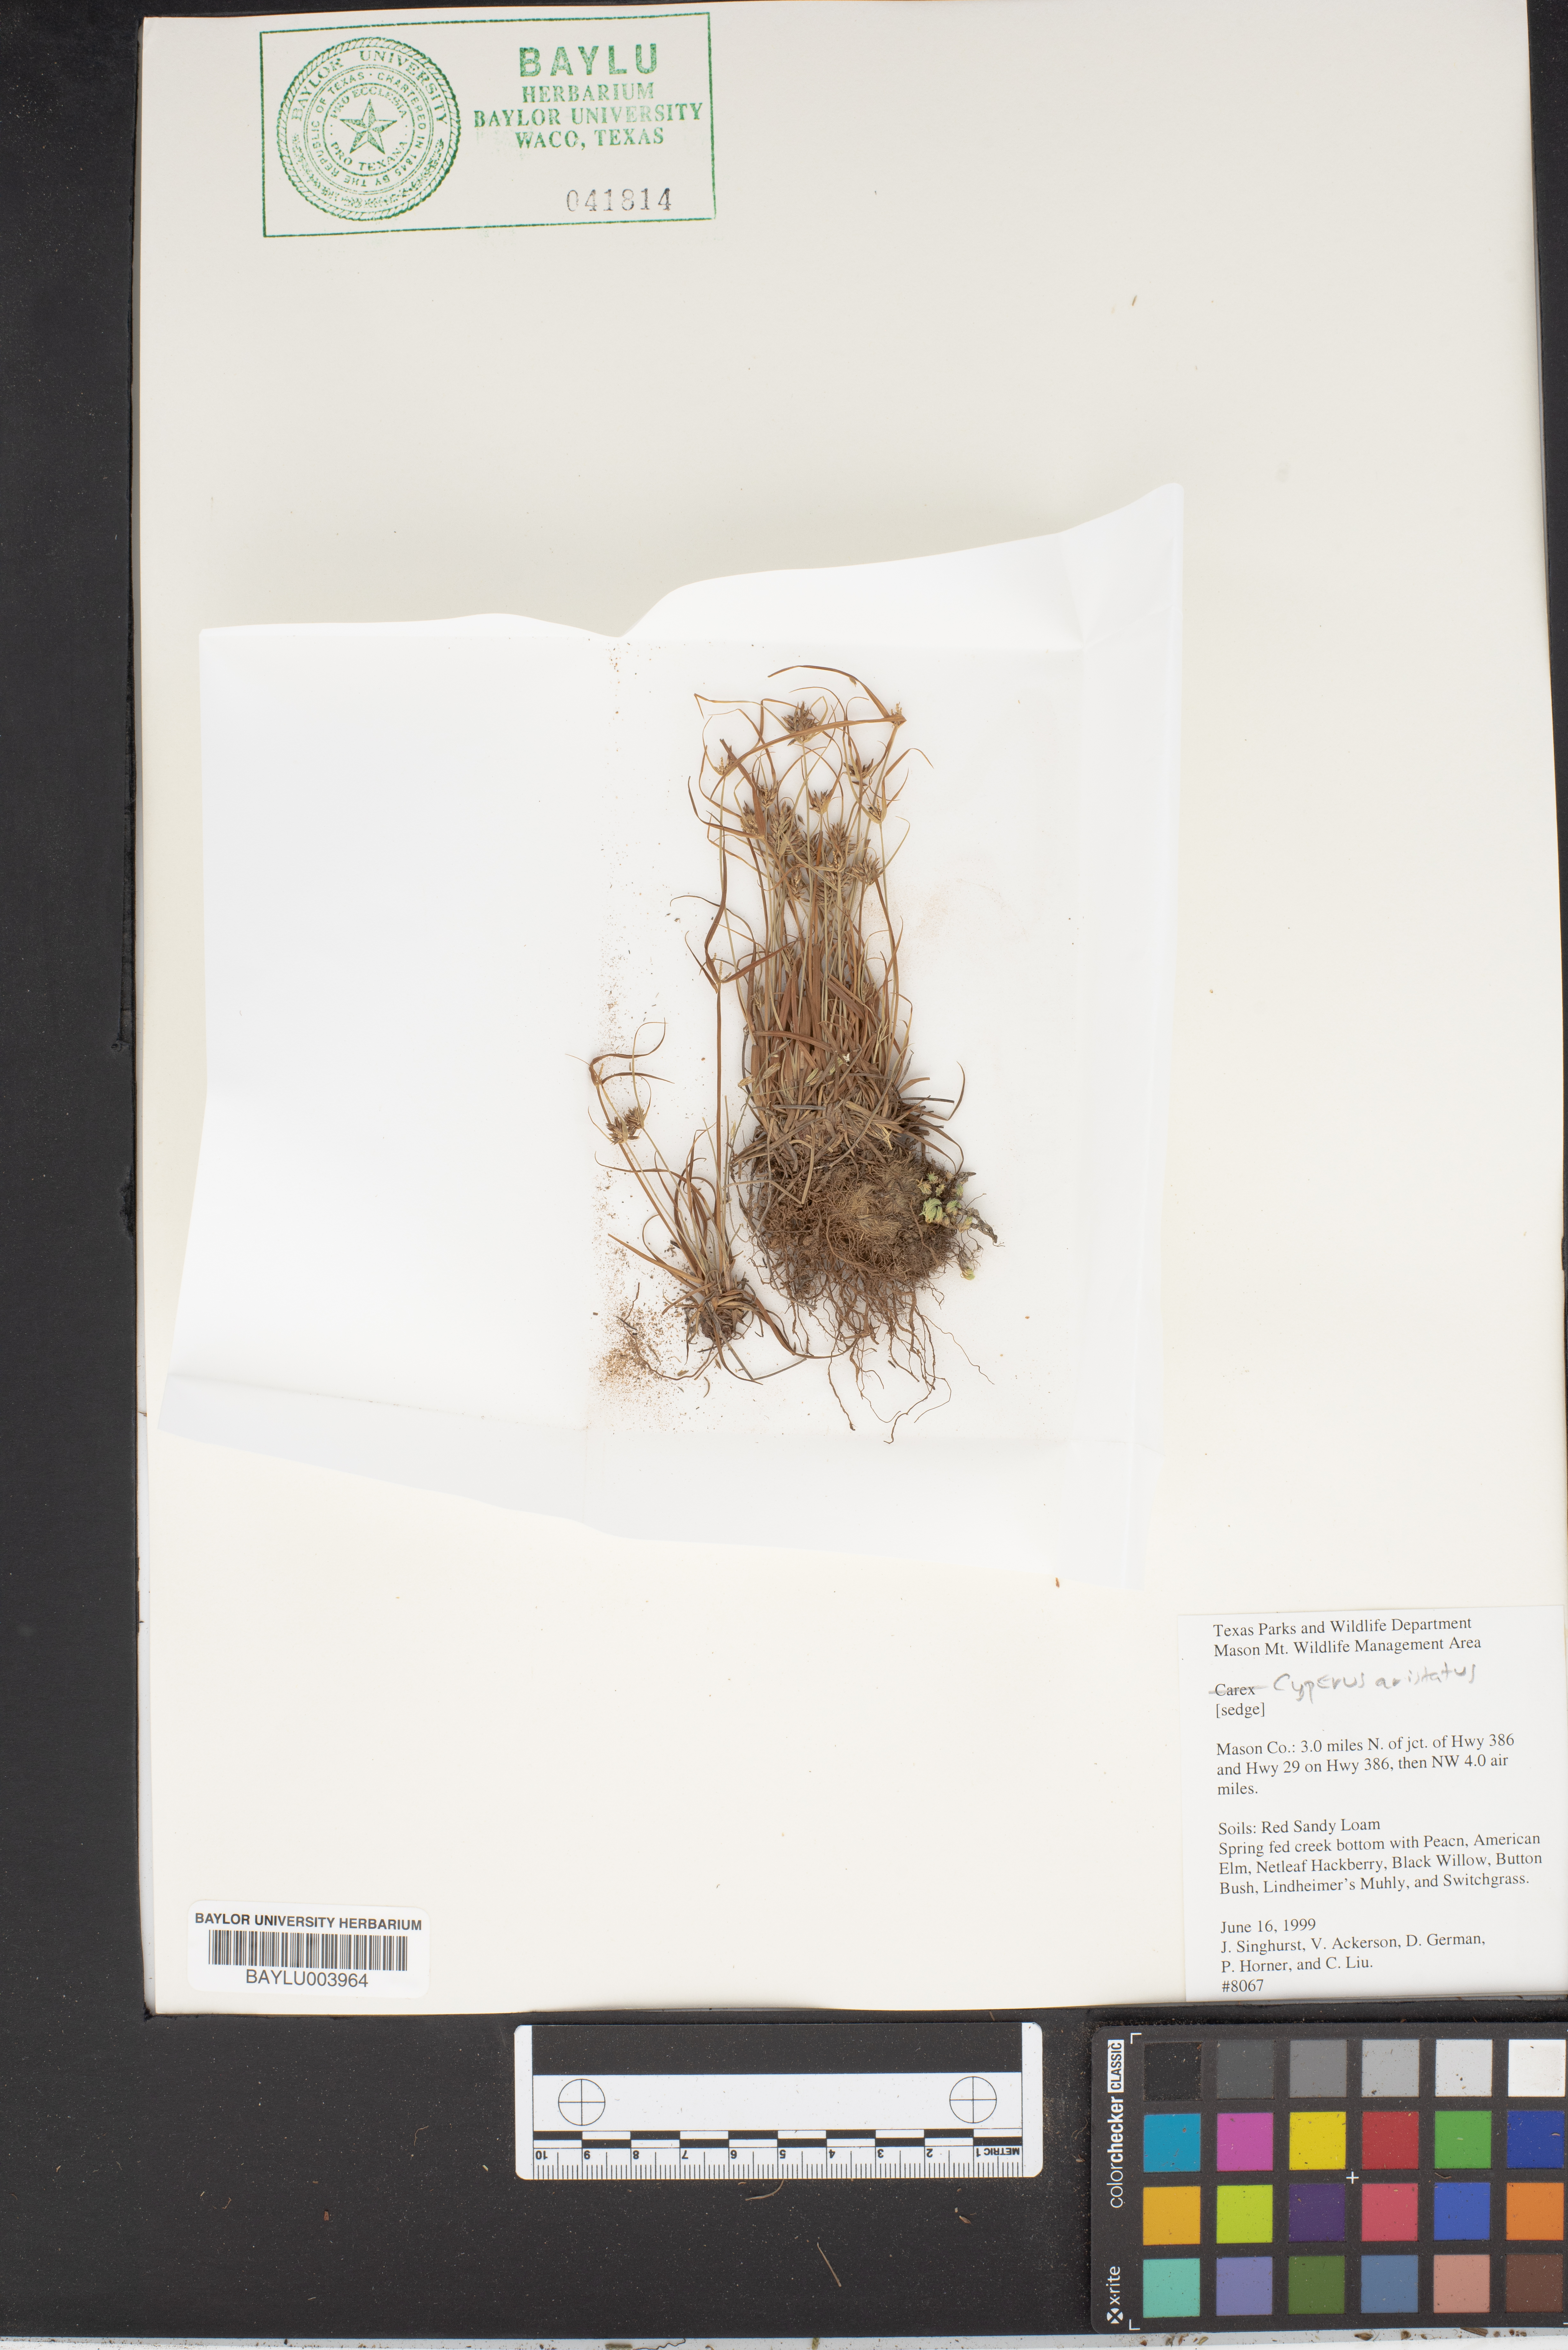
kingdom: Plantae
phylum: Tracheophyta
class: Liliopsida
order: Poales
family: Cyperaceae
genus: Cyperus
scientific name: Cyperus squarrosus
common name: Awned cyperus
